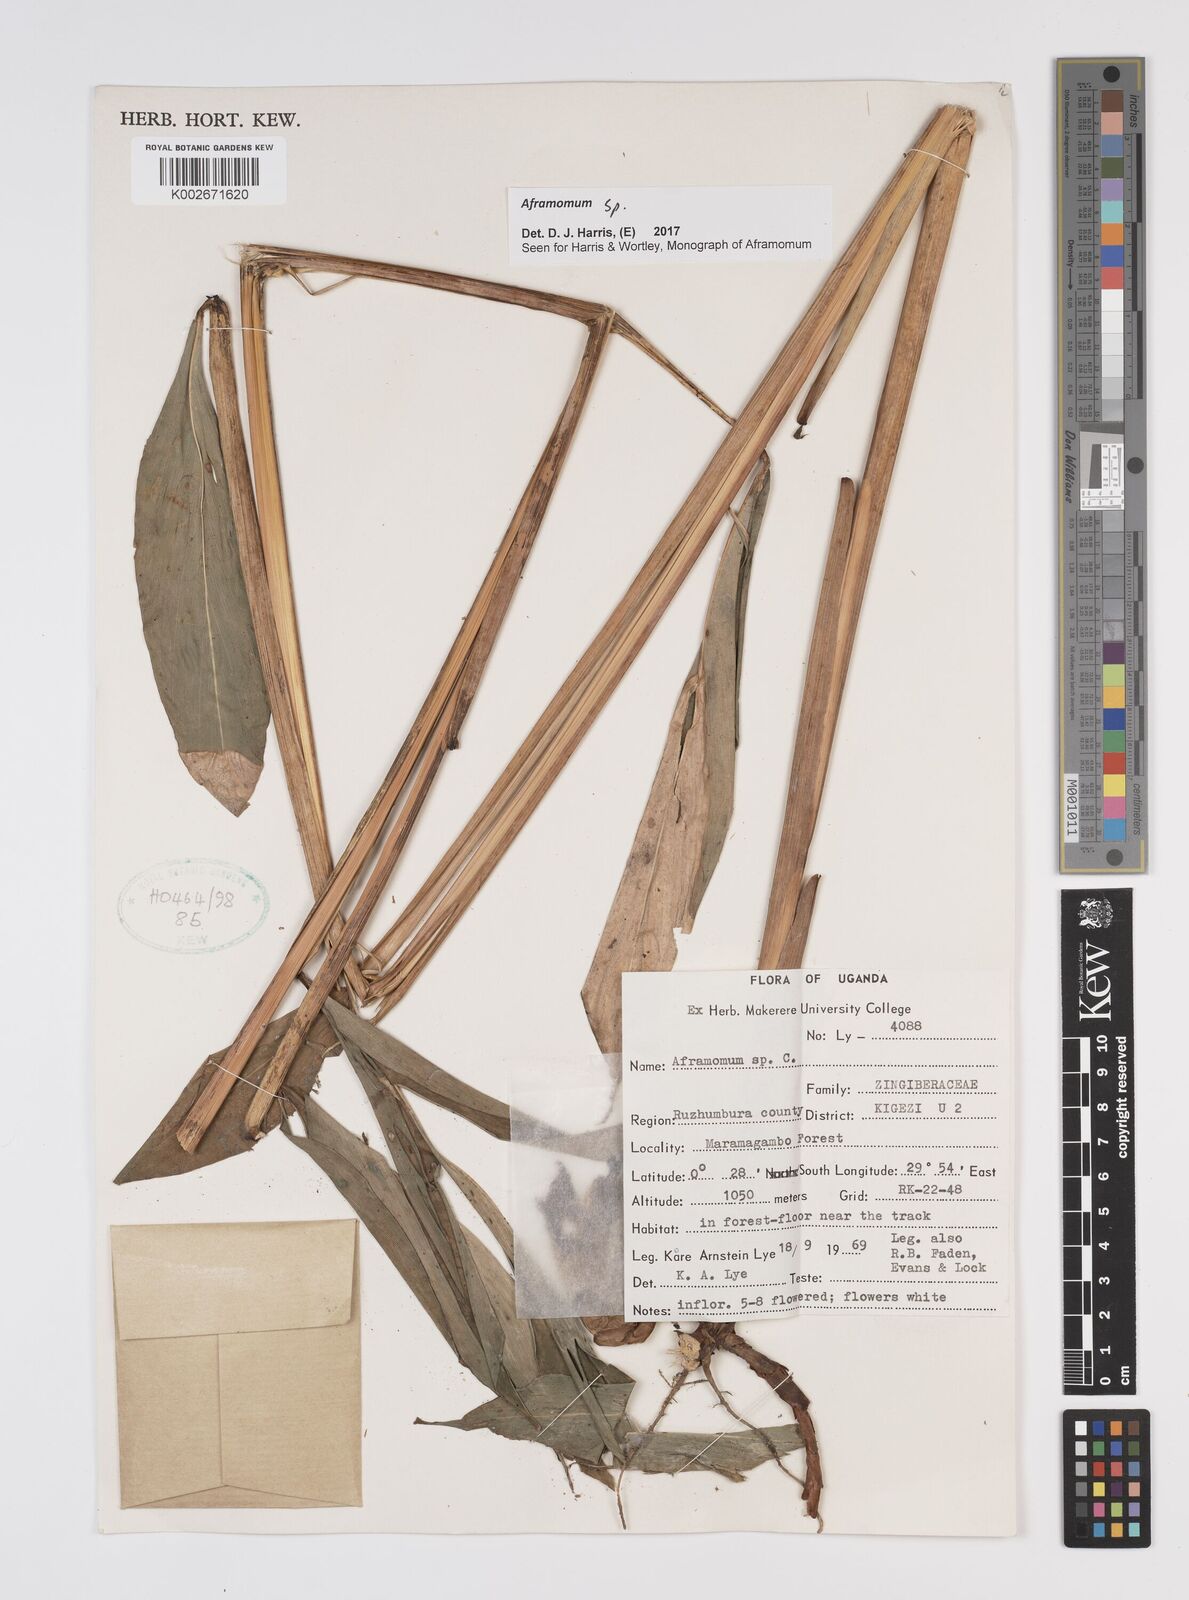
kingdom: Plantae
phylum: Tracheophyta
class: Liliopsida
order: Zingiberales
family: Zingiberaceae
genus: Aframomum
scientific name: Aframomum
